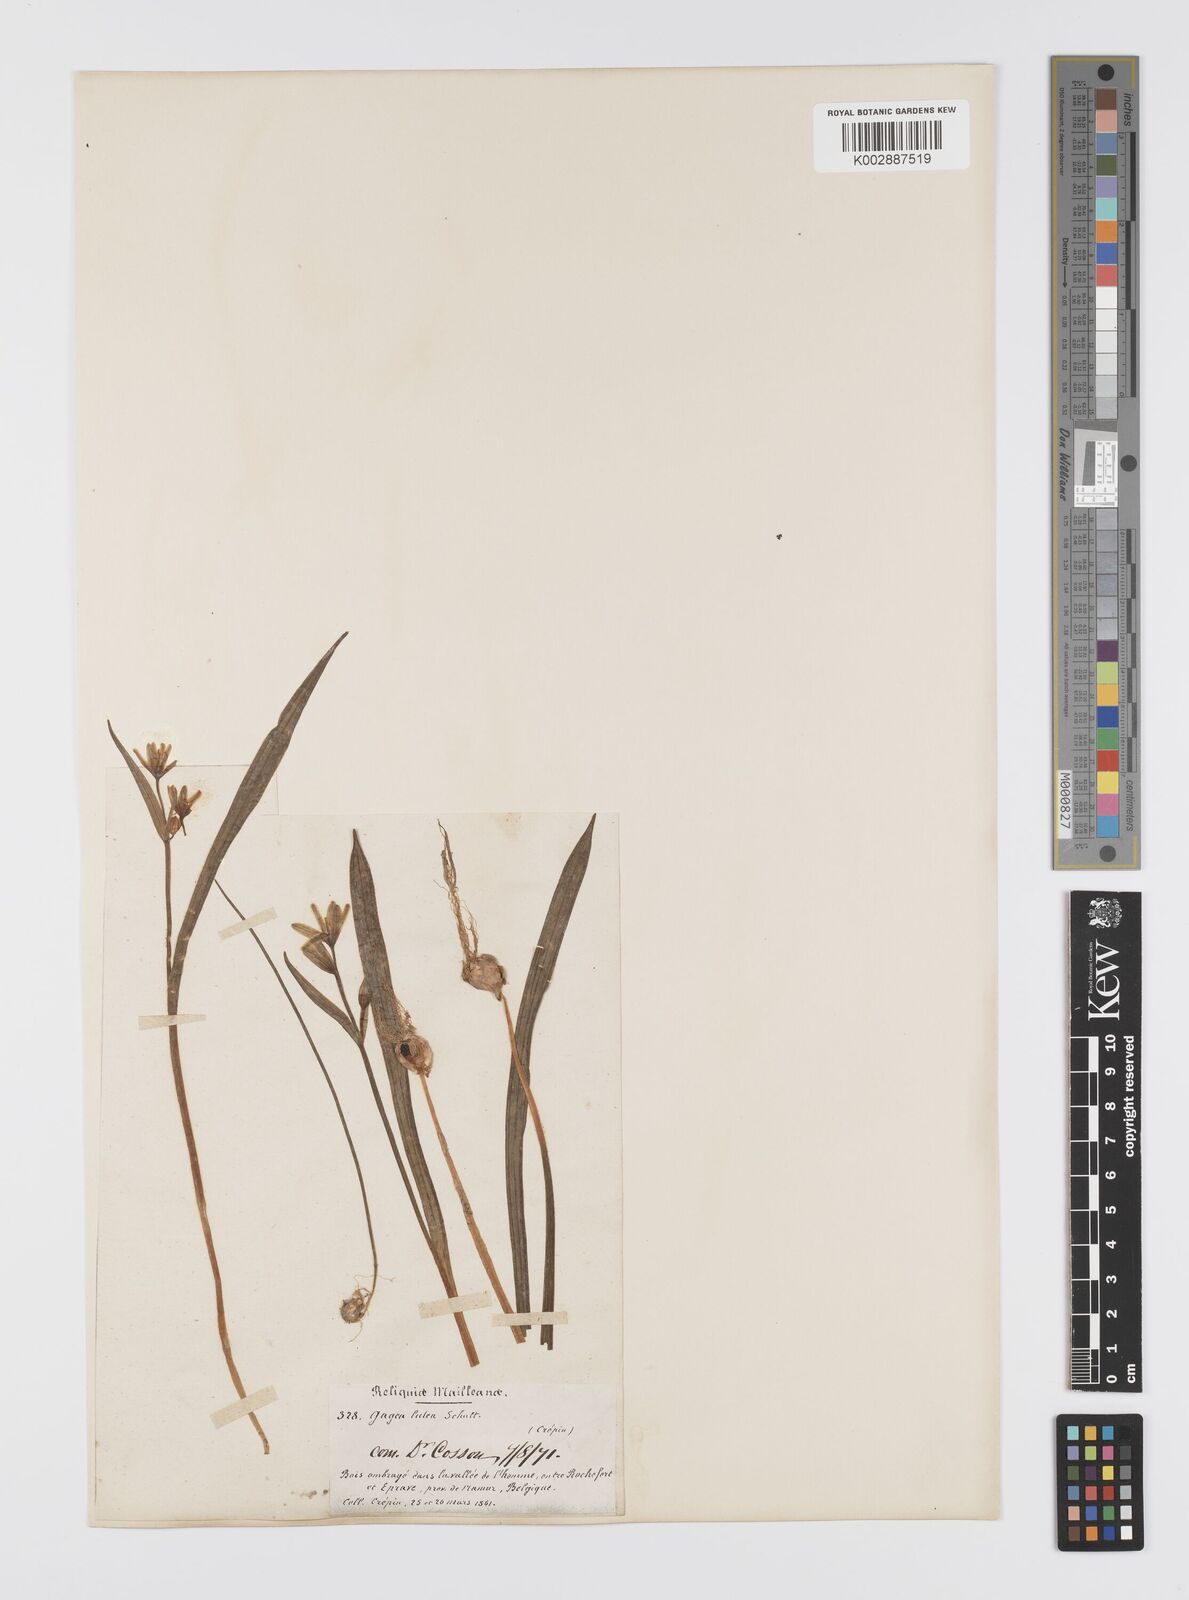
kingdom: Plantae
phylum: Tracheophyta
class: Liliopsida
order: Liliales
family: Liliaceae
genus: Gagea
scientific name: Gagea lutea
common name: Yellow star-of-bethlehem
